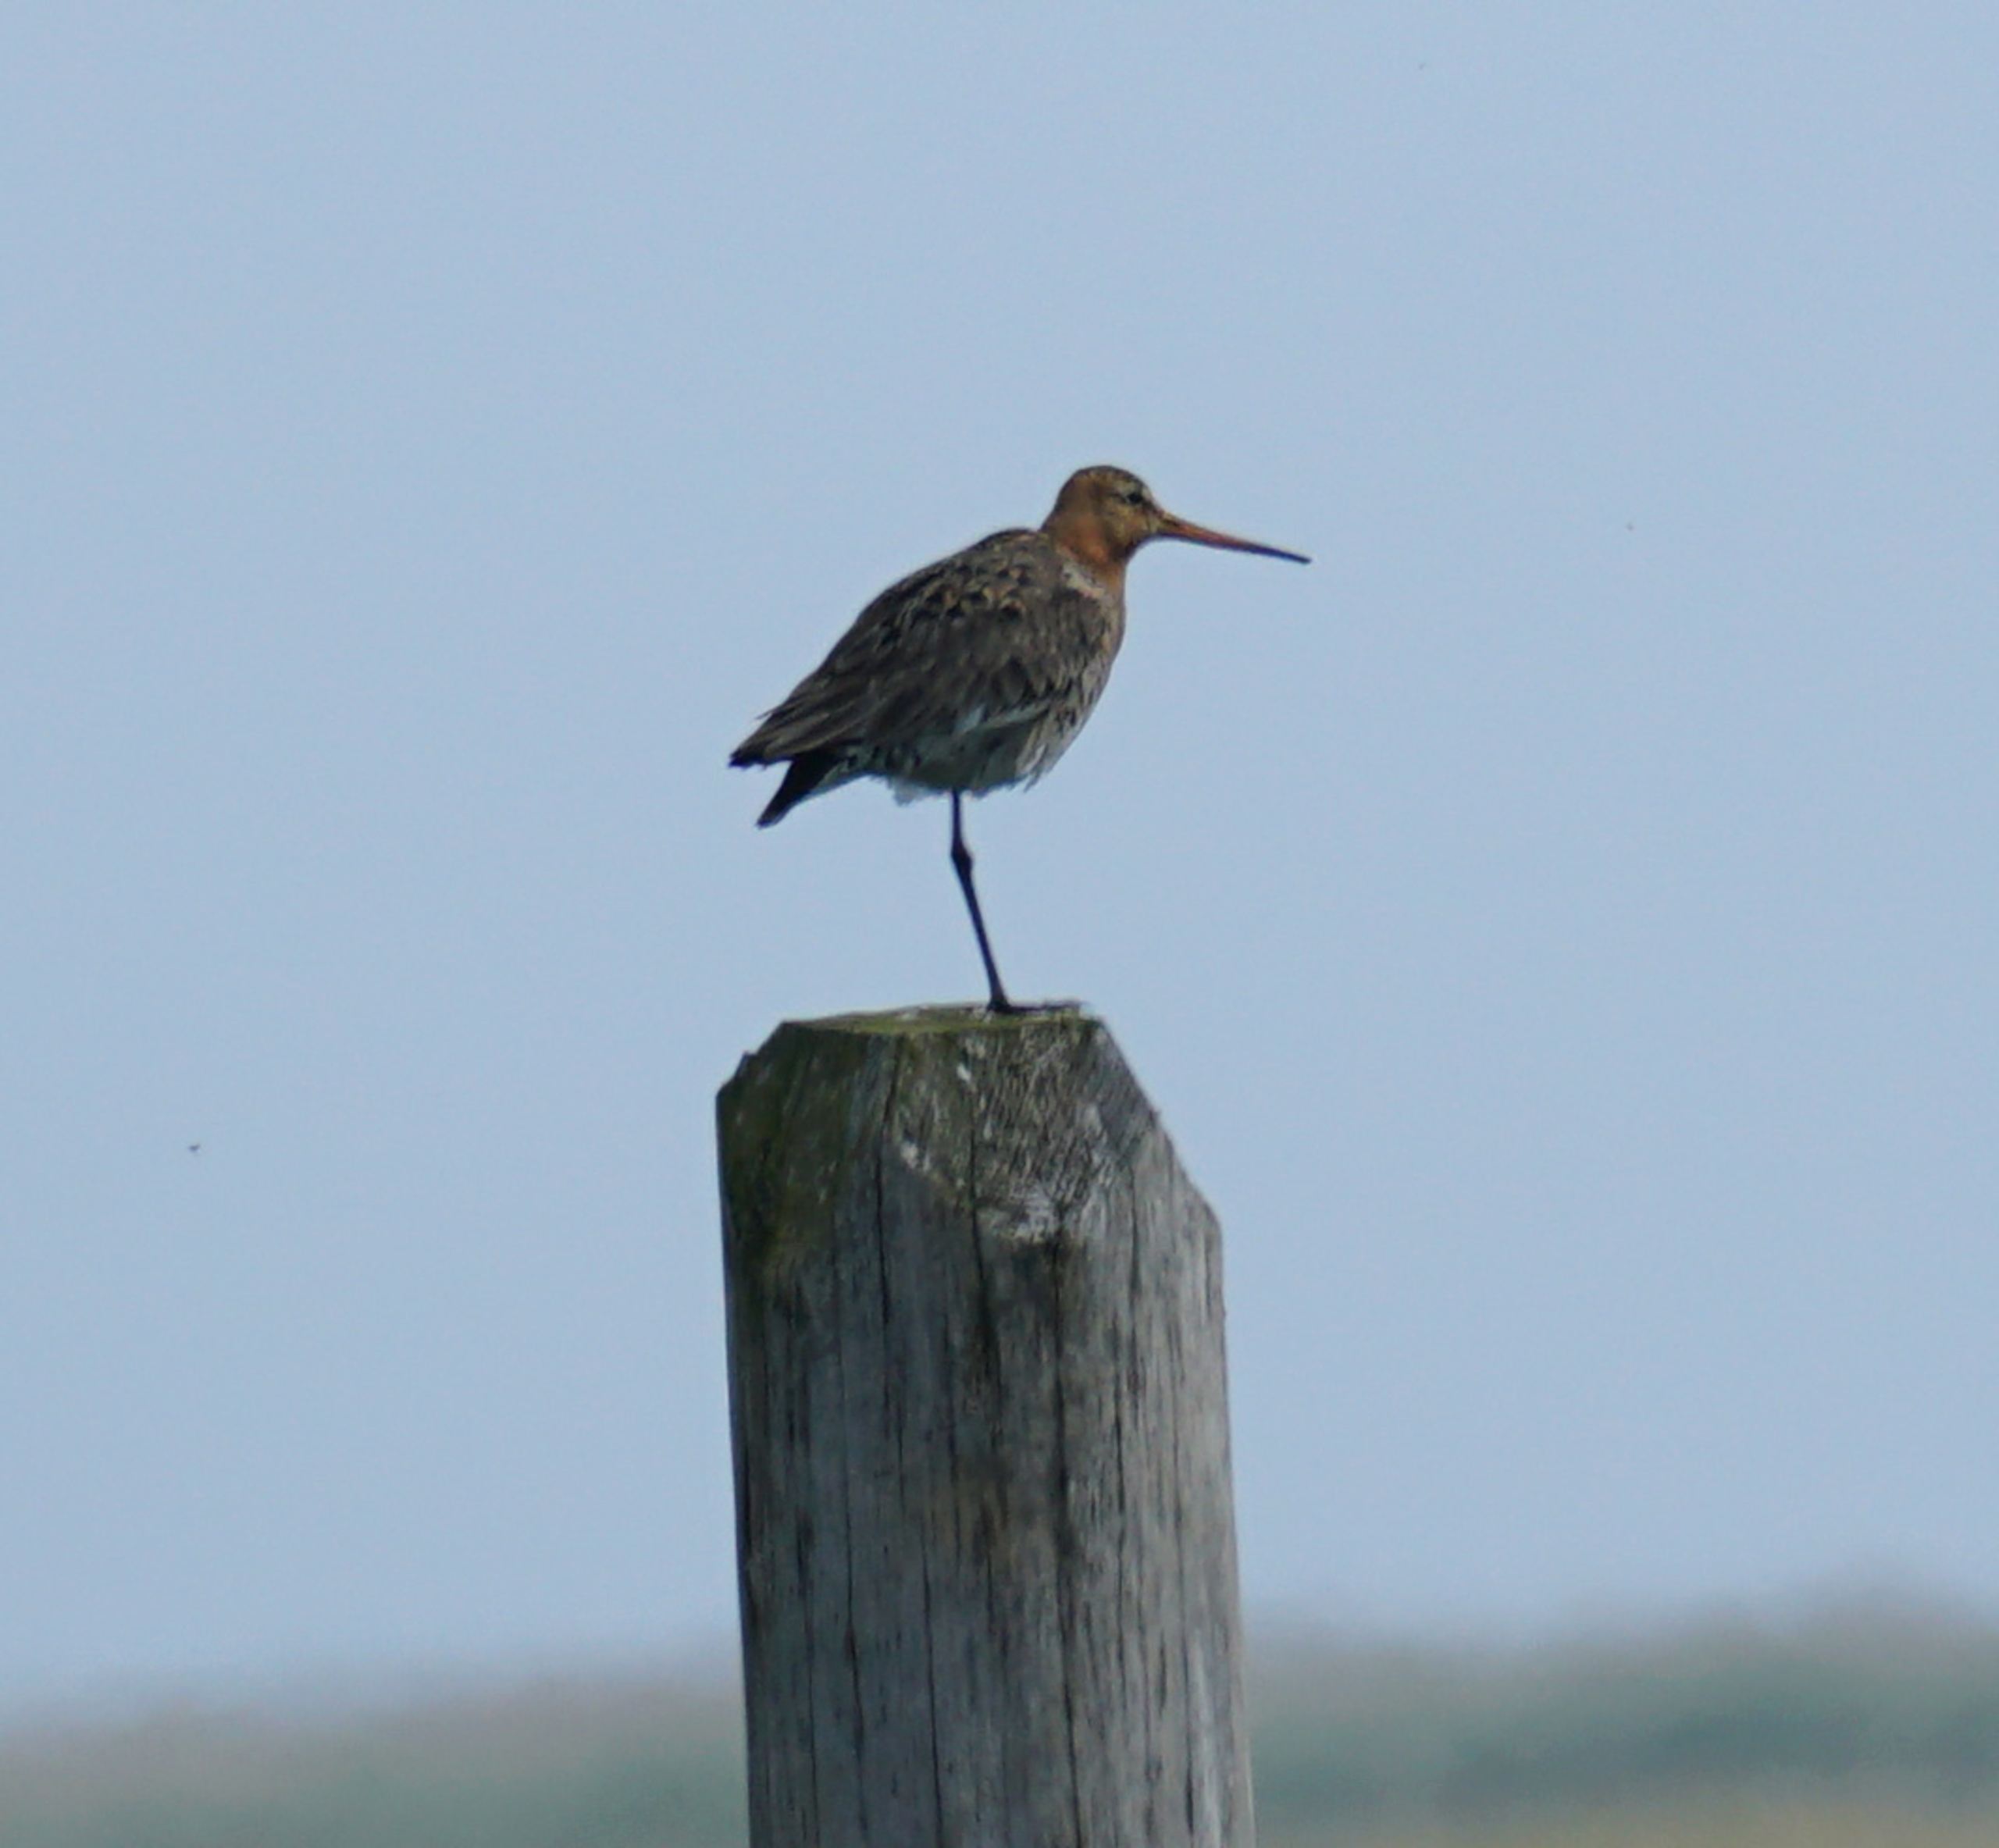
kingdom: Animalia
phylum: Chordata
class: Aves
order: Charadriiformes
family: Scolopacidae
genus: Limosa
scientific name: Limosa limosa
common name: Stor kobbersneppe
